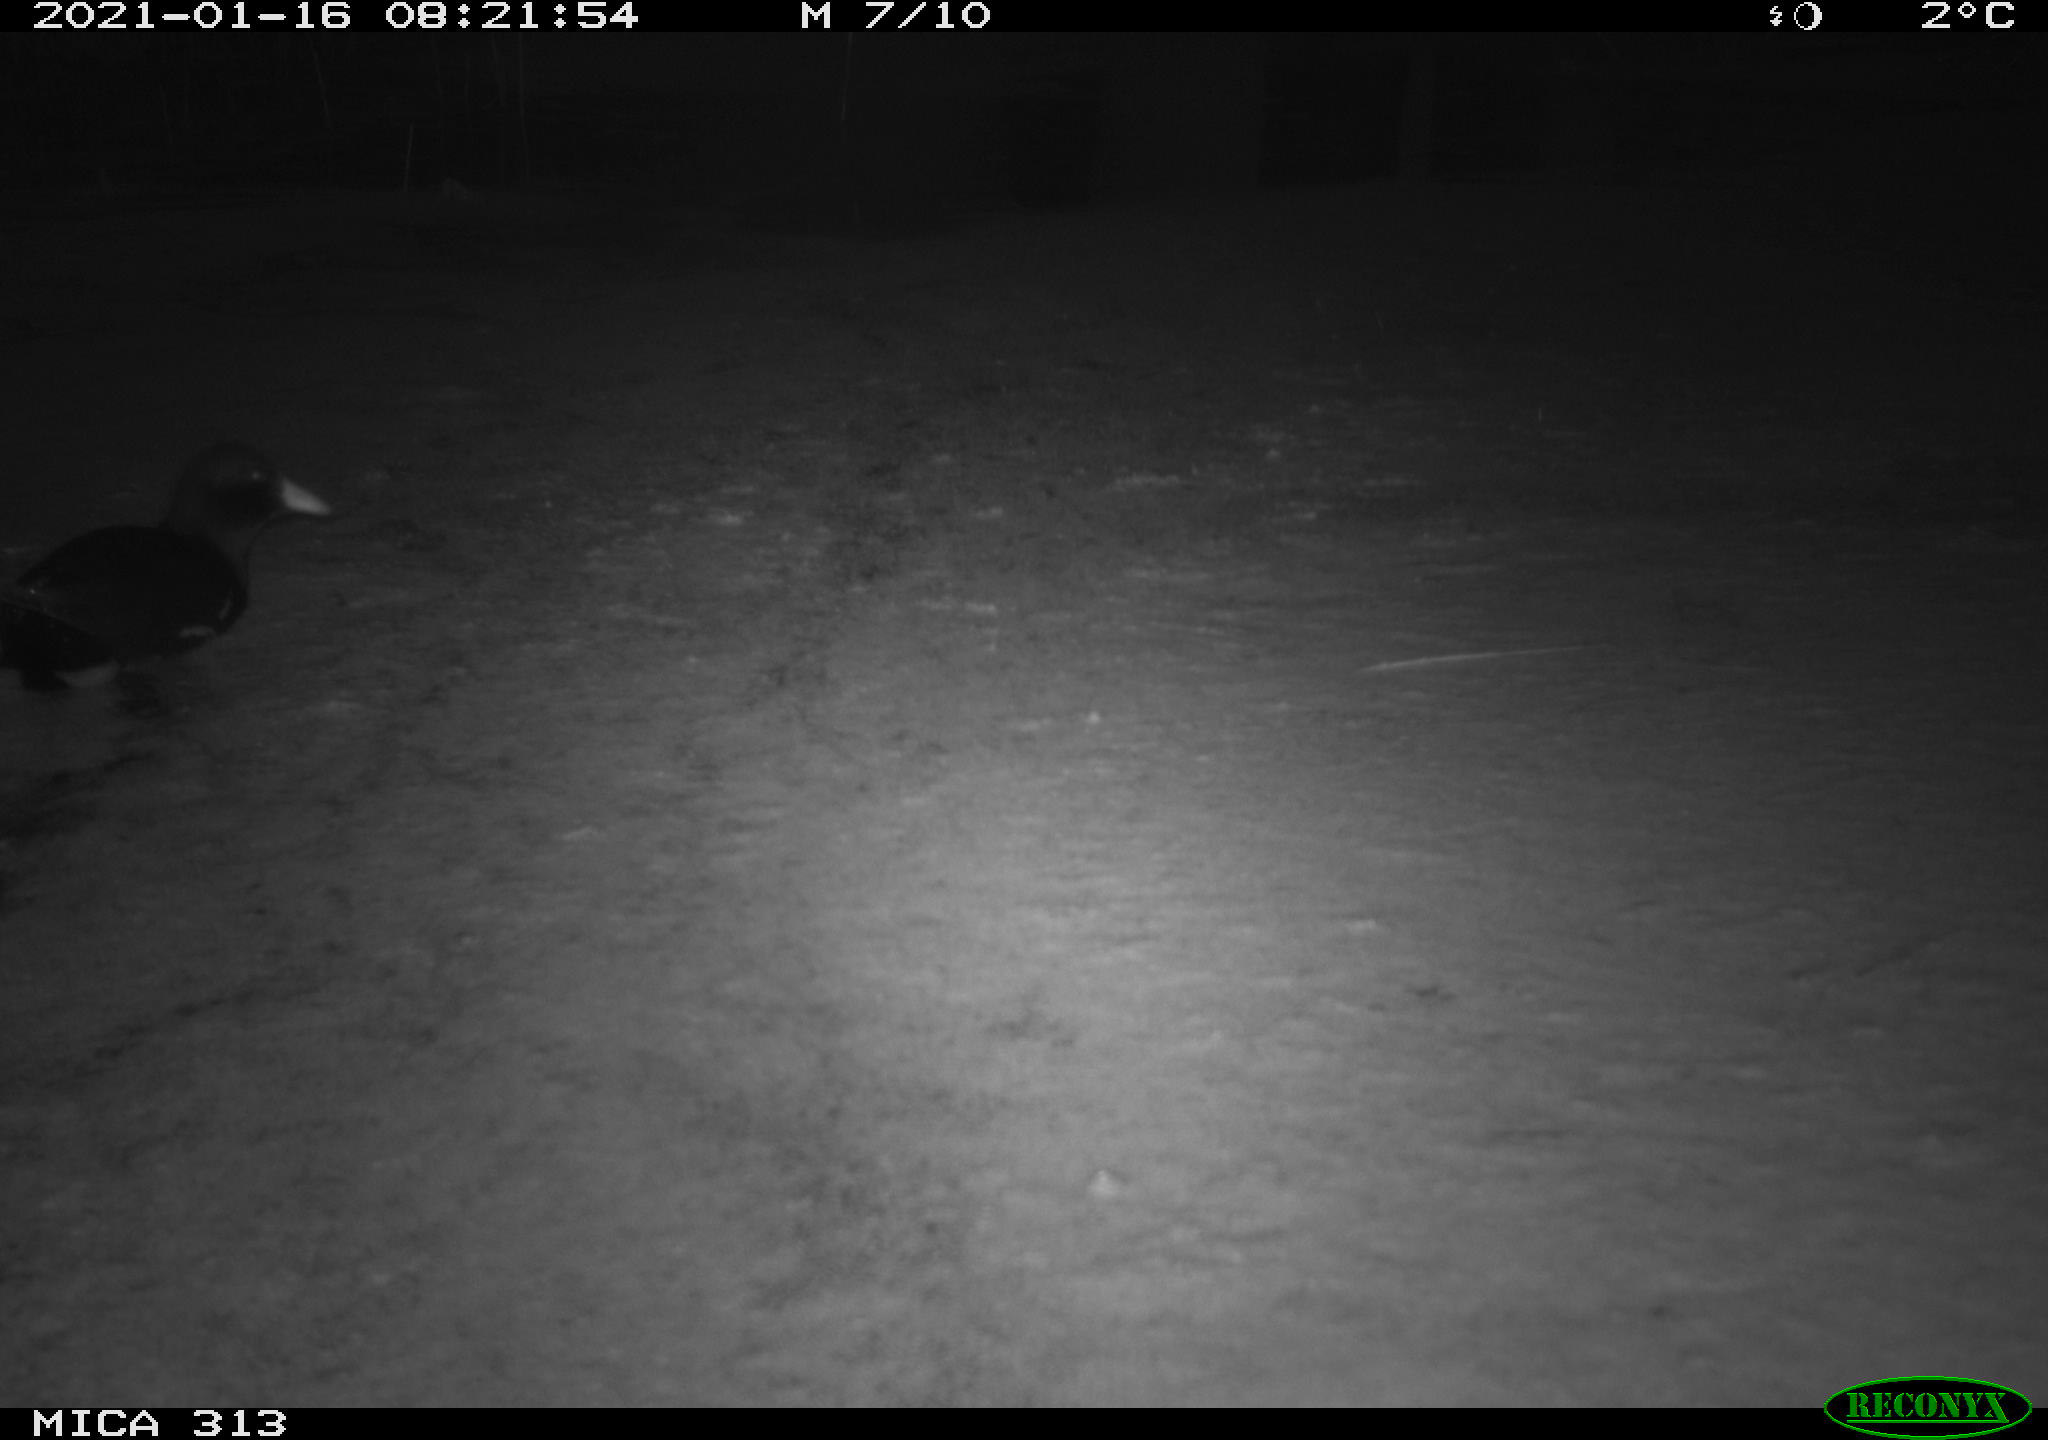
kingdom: Animalia
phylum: Chordata
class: Aves
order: Gruiformes
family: Rallidae
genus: Gallinula
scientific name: Gallinula chloropus
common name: Common moorhen
